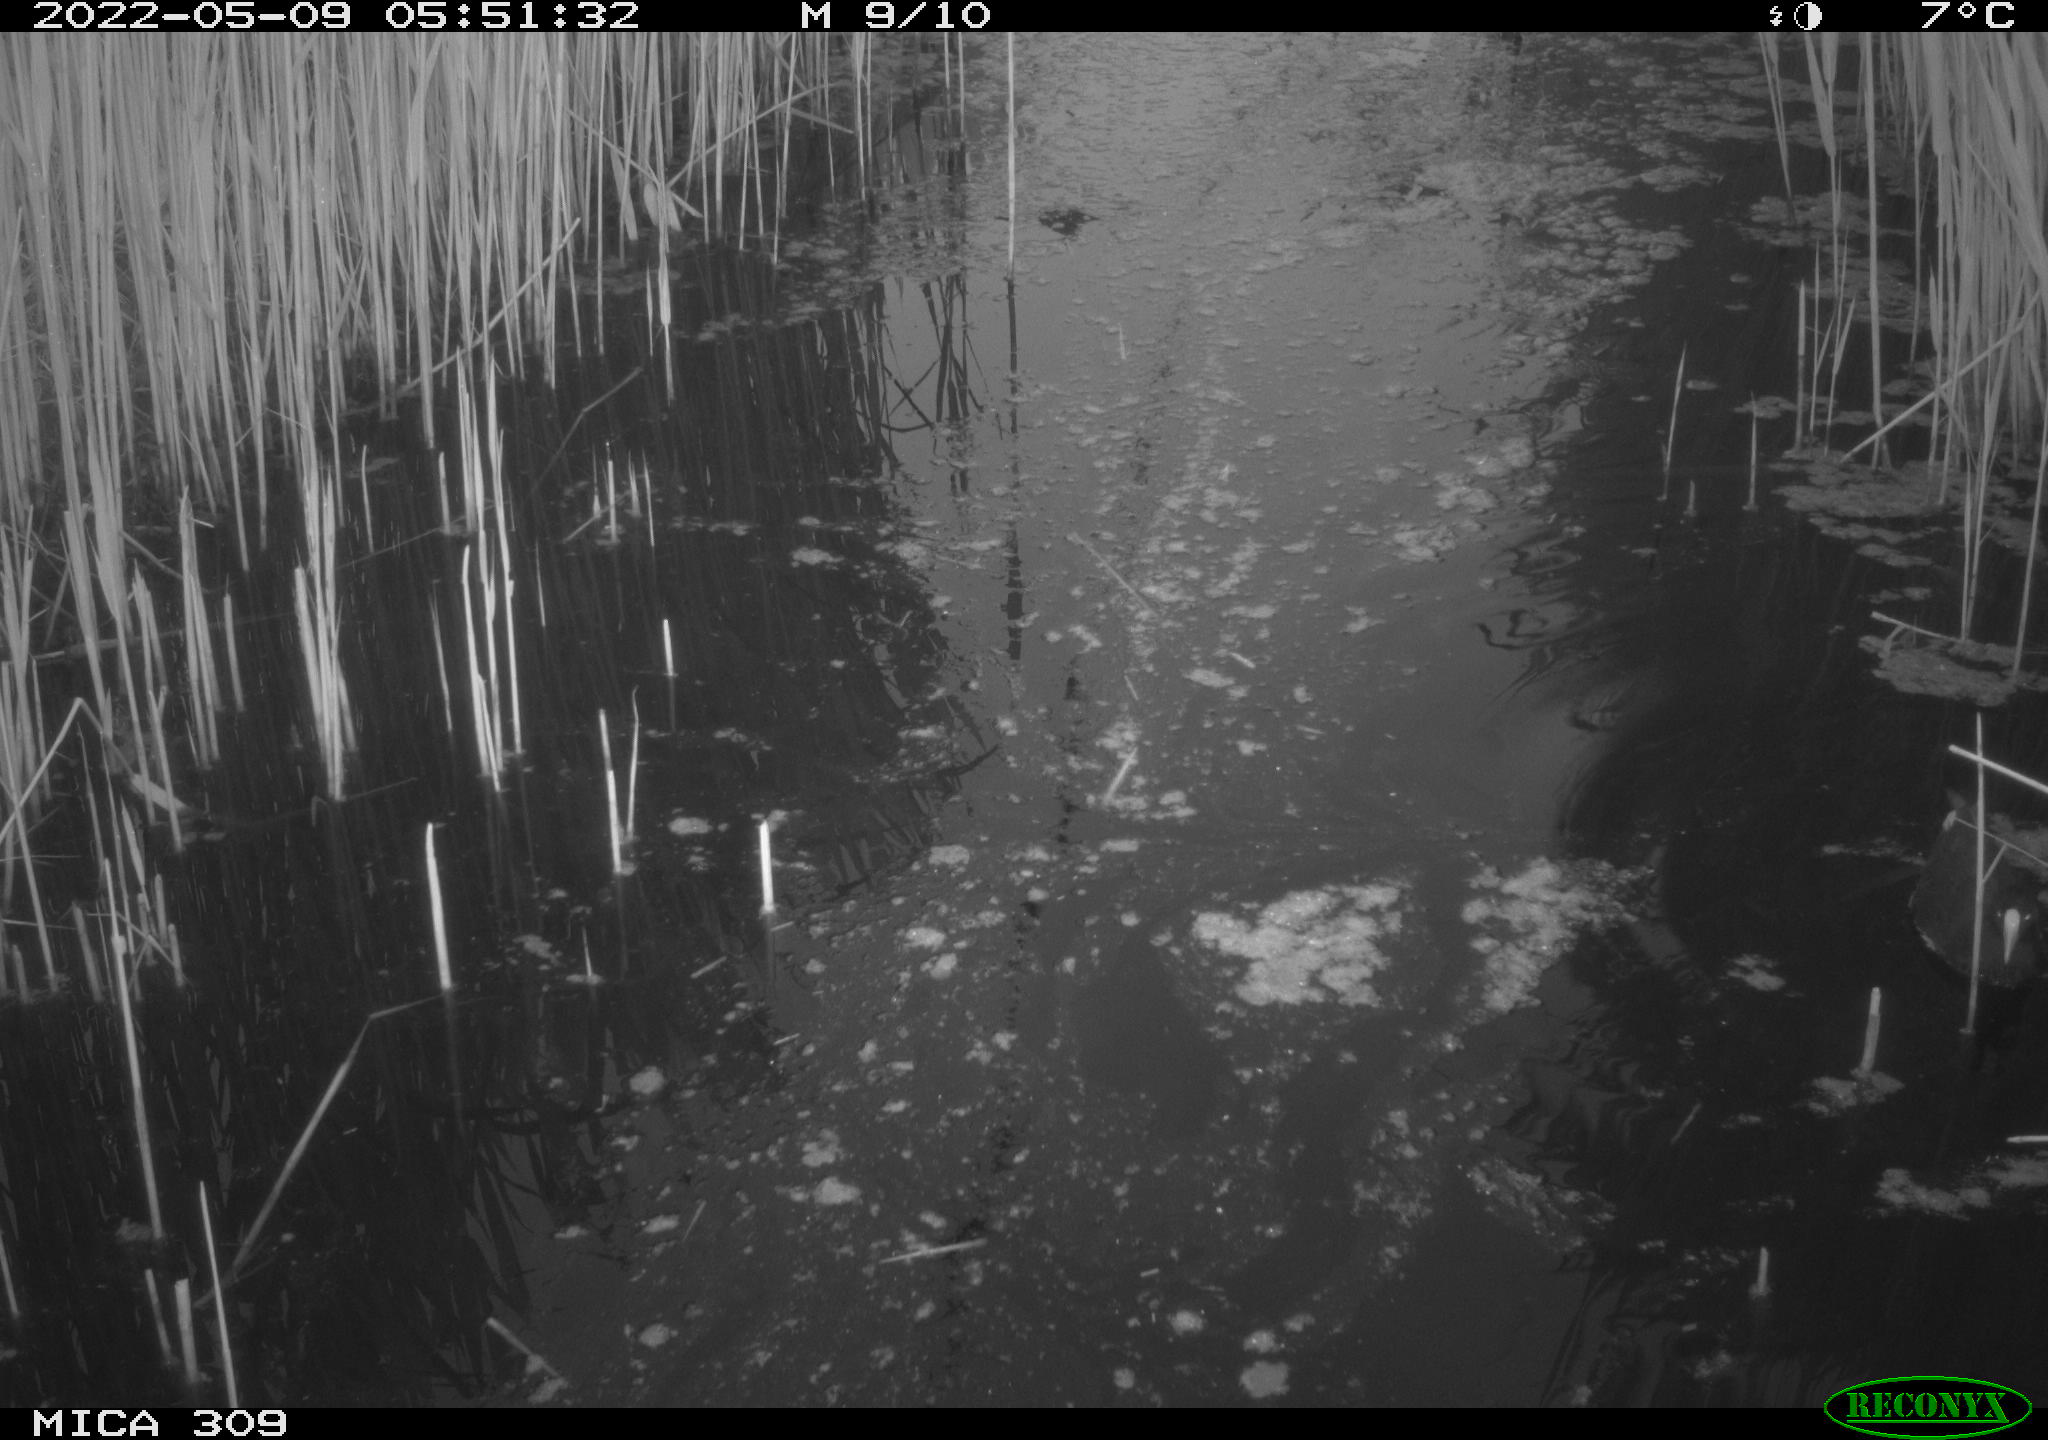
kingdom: Animalia
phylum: Chordata
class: Aves
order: Gruiformes
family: Rallidae
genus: Gallinula
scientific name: Gallinula chloropus
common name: Common moorhen
